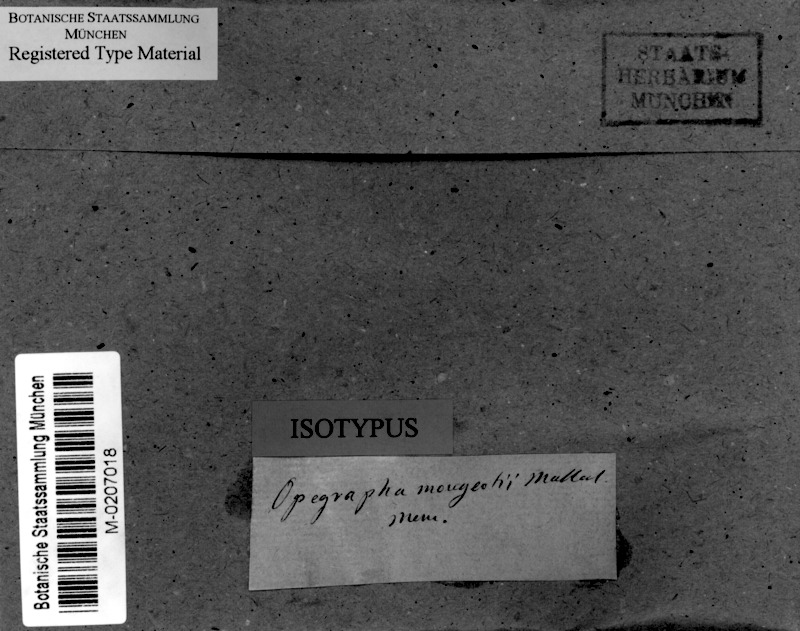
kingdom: Fungi
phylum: Ascomycota
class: Arthoniomycetes
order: Arthoniales
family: Lecanographaceae
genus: Alyxoria
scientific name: Alyxoria mougeotii
